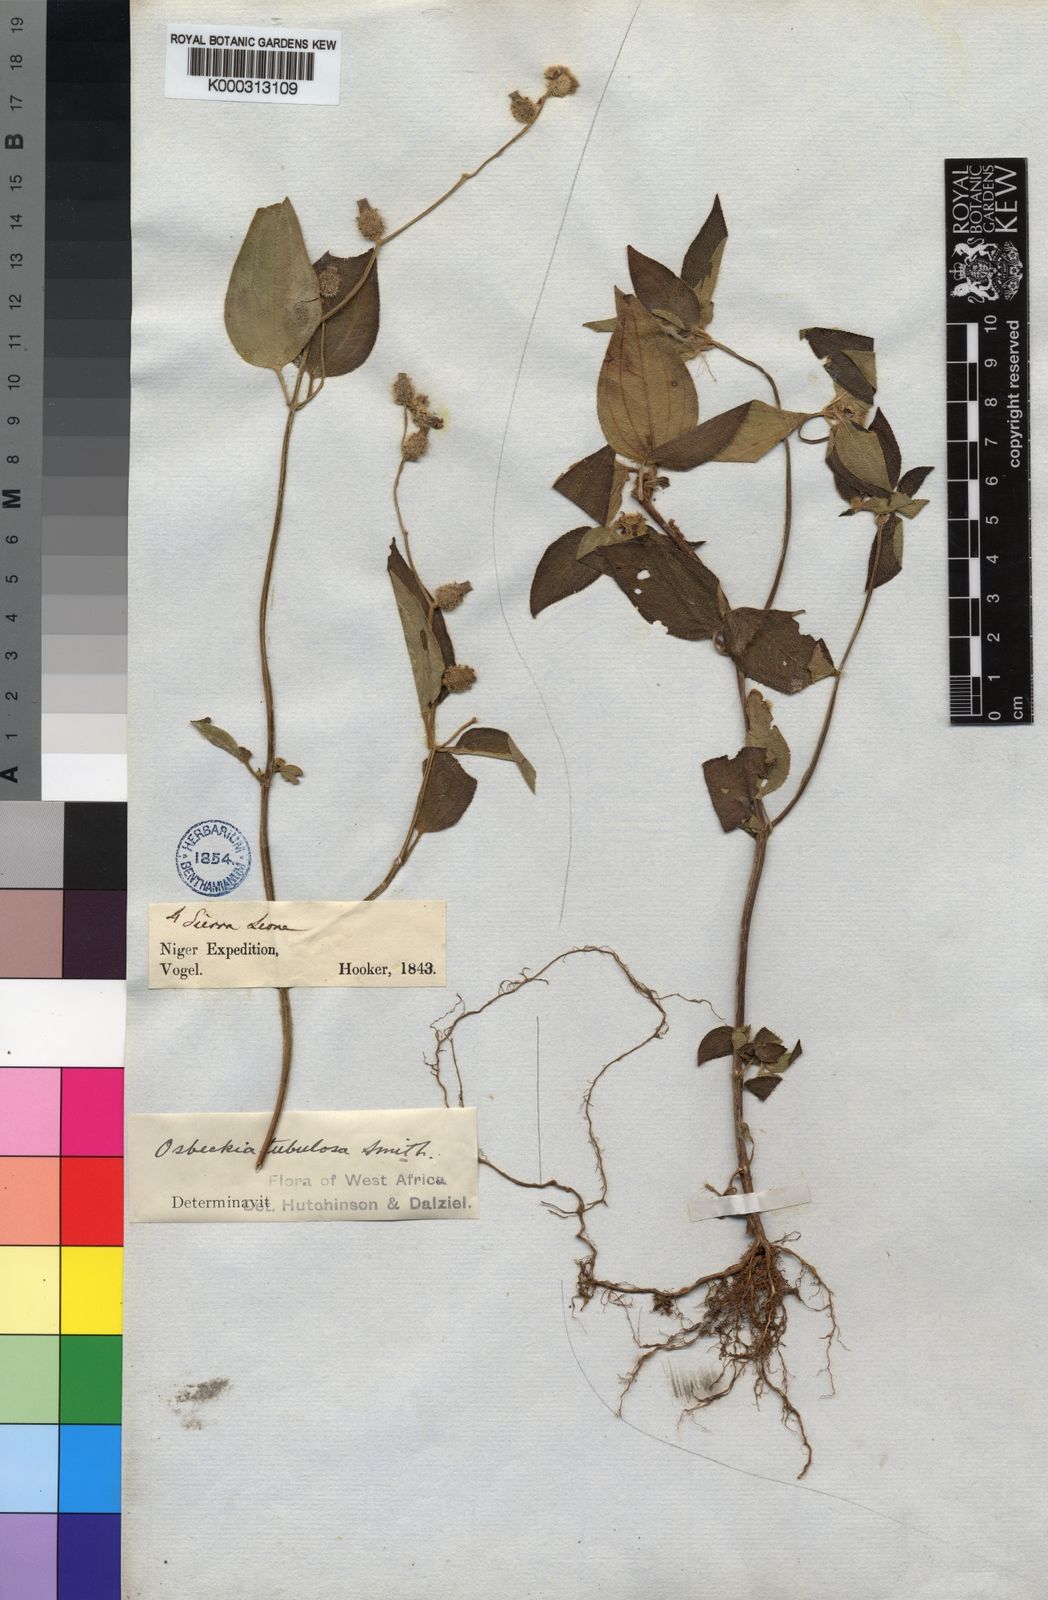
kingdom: Plantae
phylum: Tracheophyta
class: Magnoliopsida
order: Myrtales
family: Melastomataceae
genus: Derosiphia
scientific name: Derosiphia tubulosa
